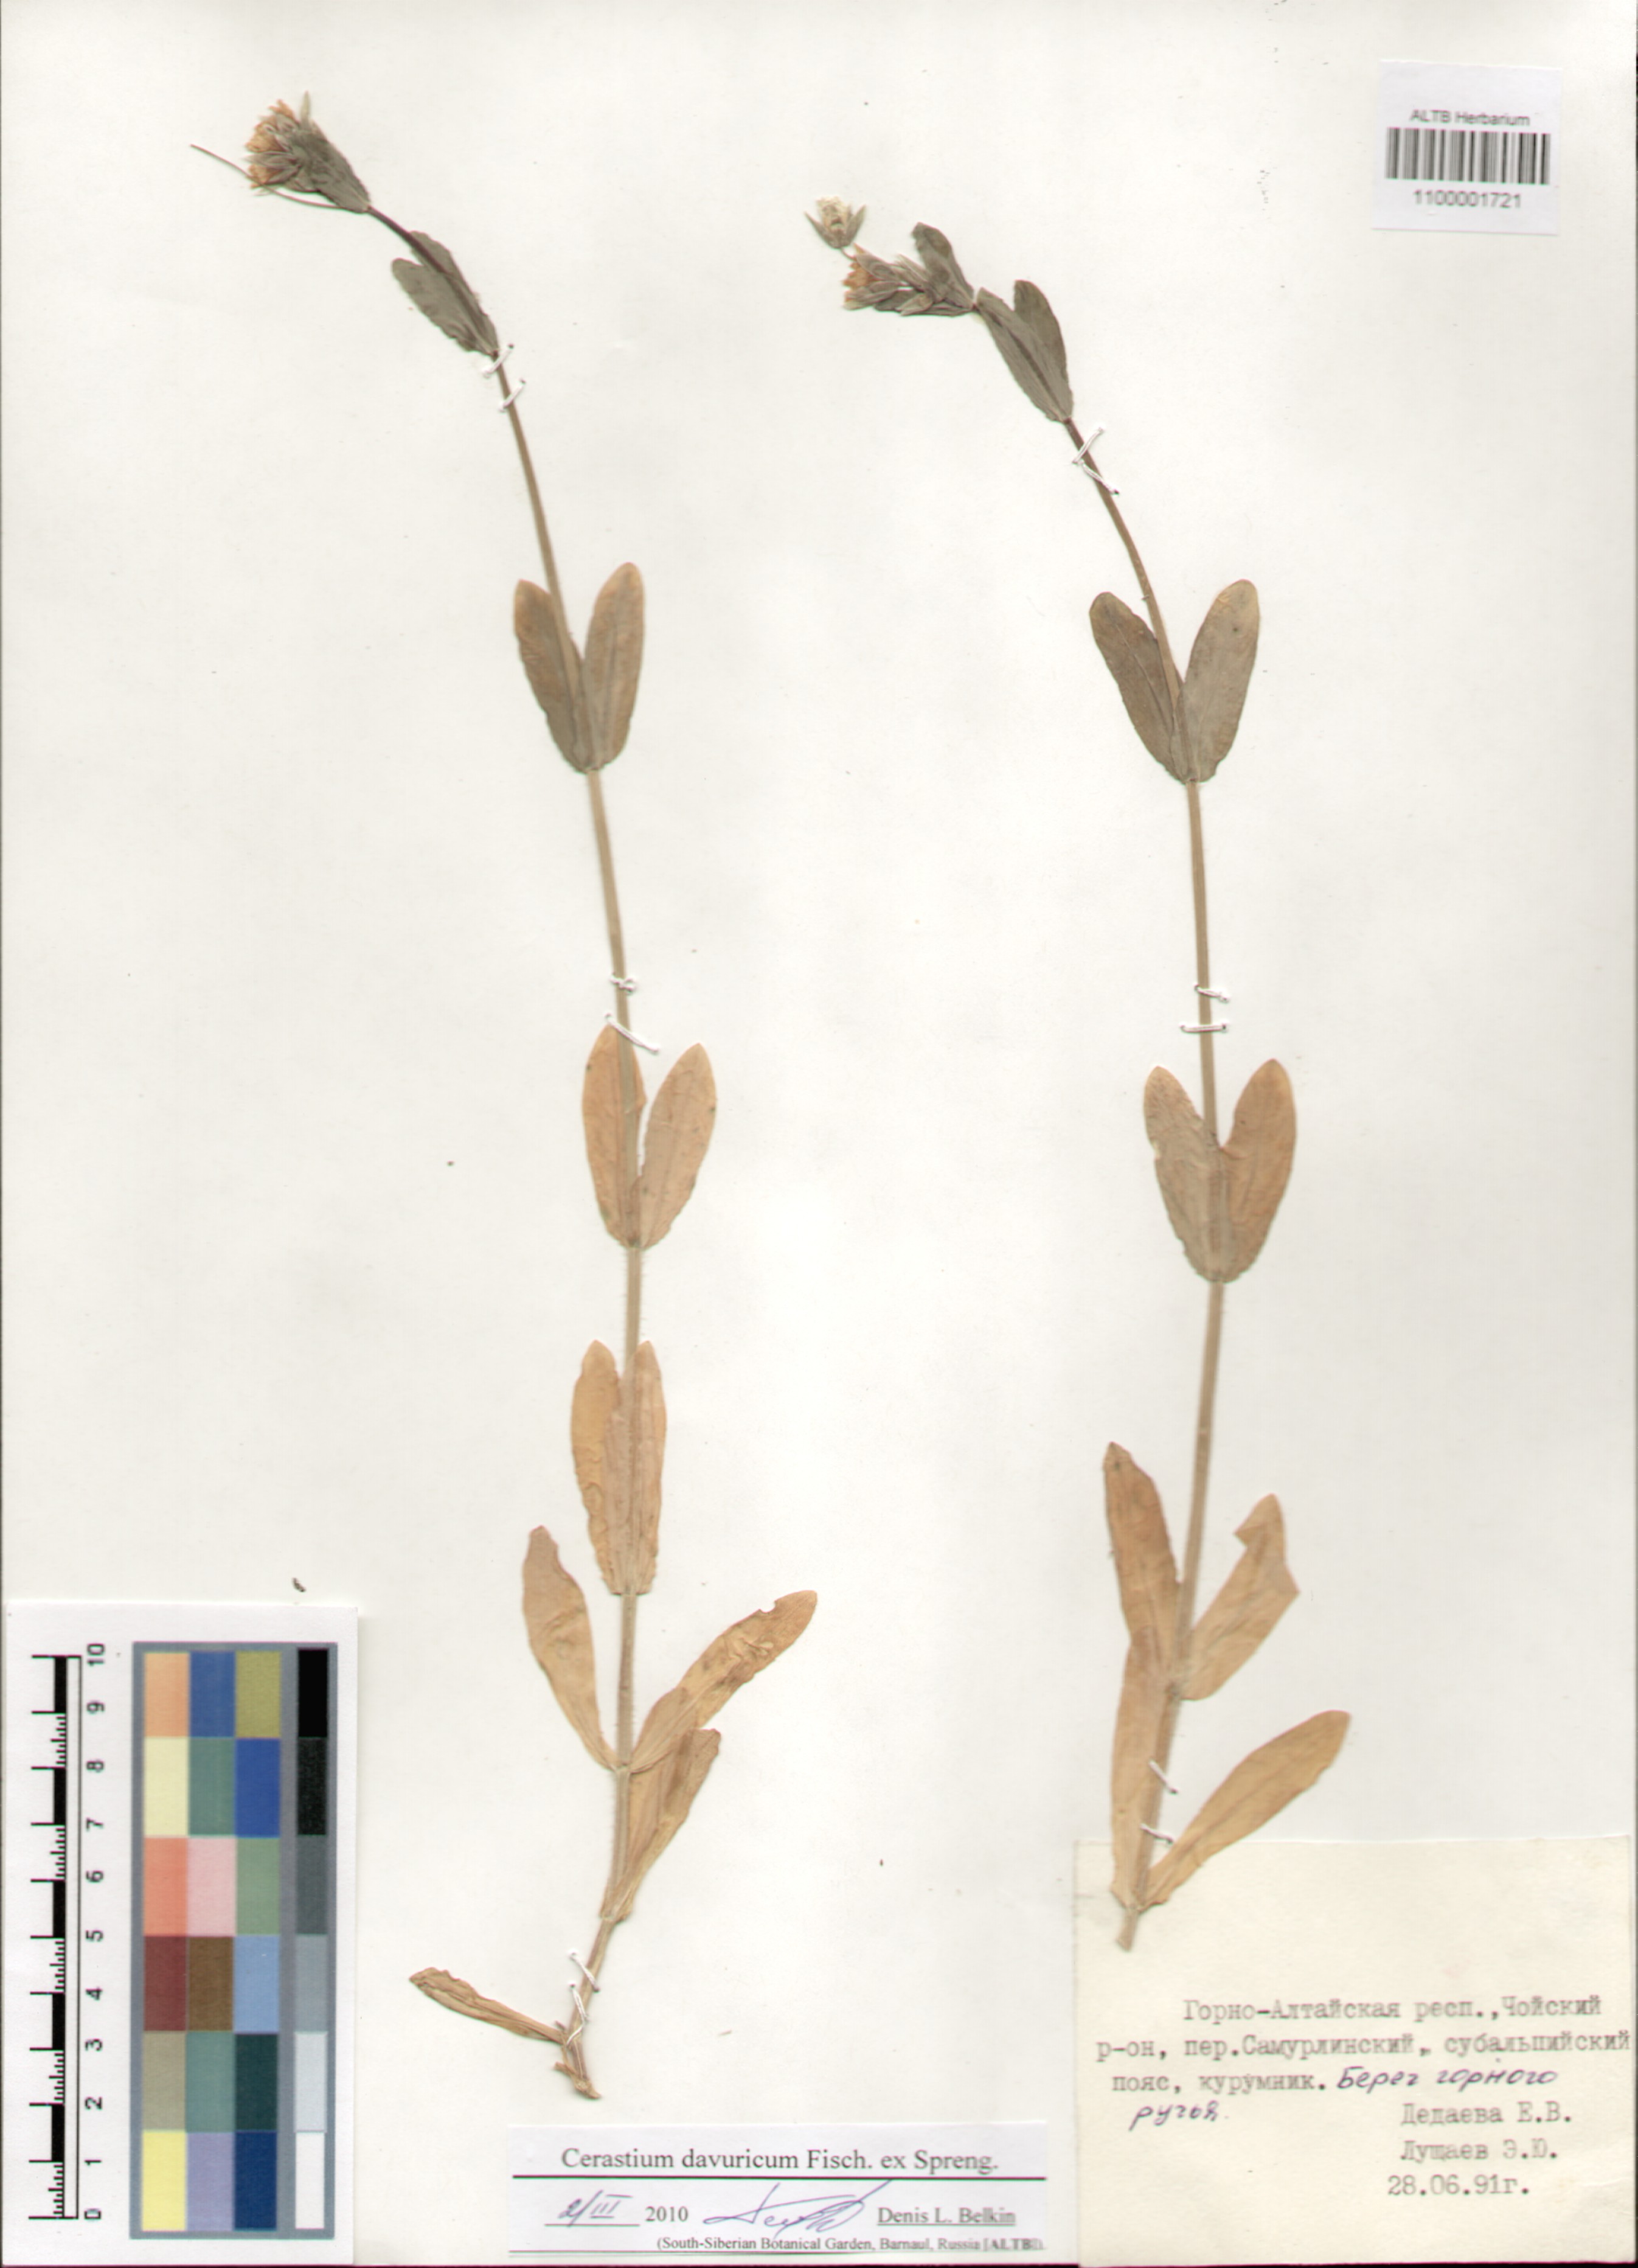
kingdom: Plantae
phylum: Tracheophyta
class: Magnoliopsida
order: Caryophyllales
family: Caryophyllaceae
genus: Dichodon
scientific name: Dichodon davuricum
